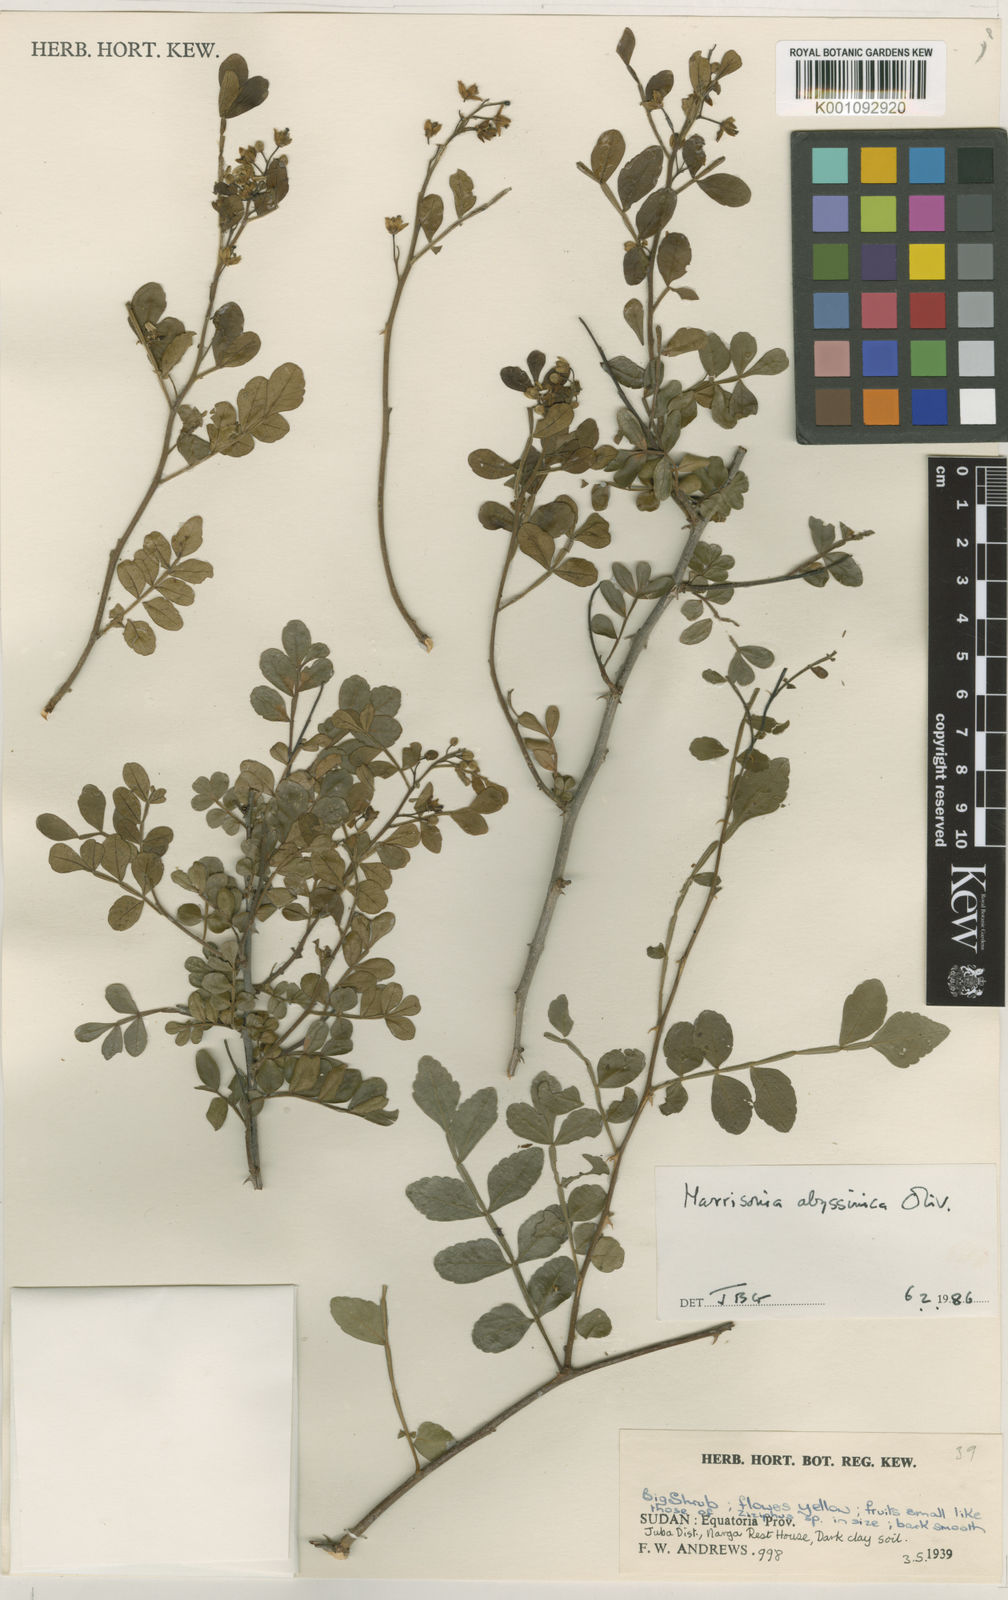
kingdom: Plantae
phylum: Tracheophyta
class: Magnoliopsida
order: Sapindales
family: Rutaceae
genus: Harrisonia
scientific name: Harrisonia abyssinica
